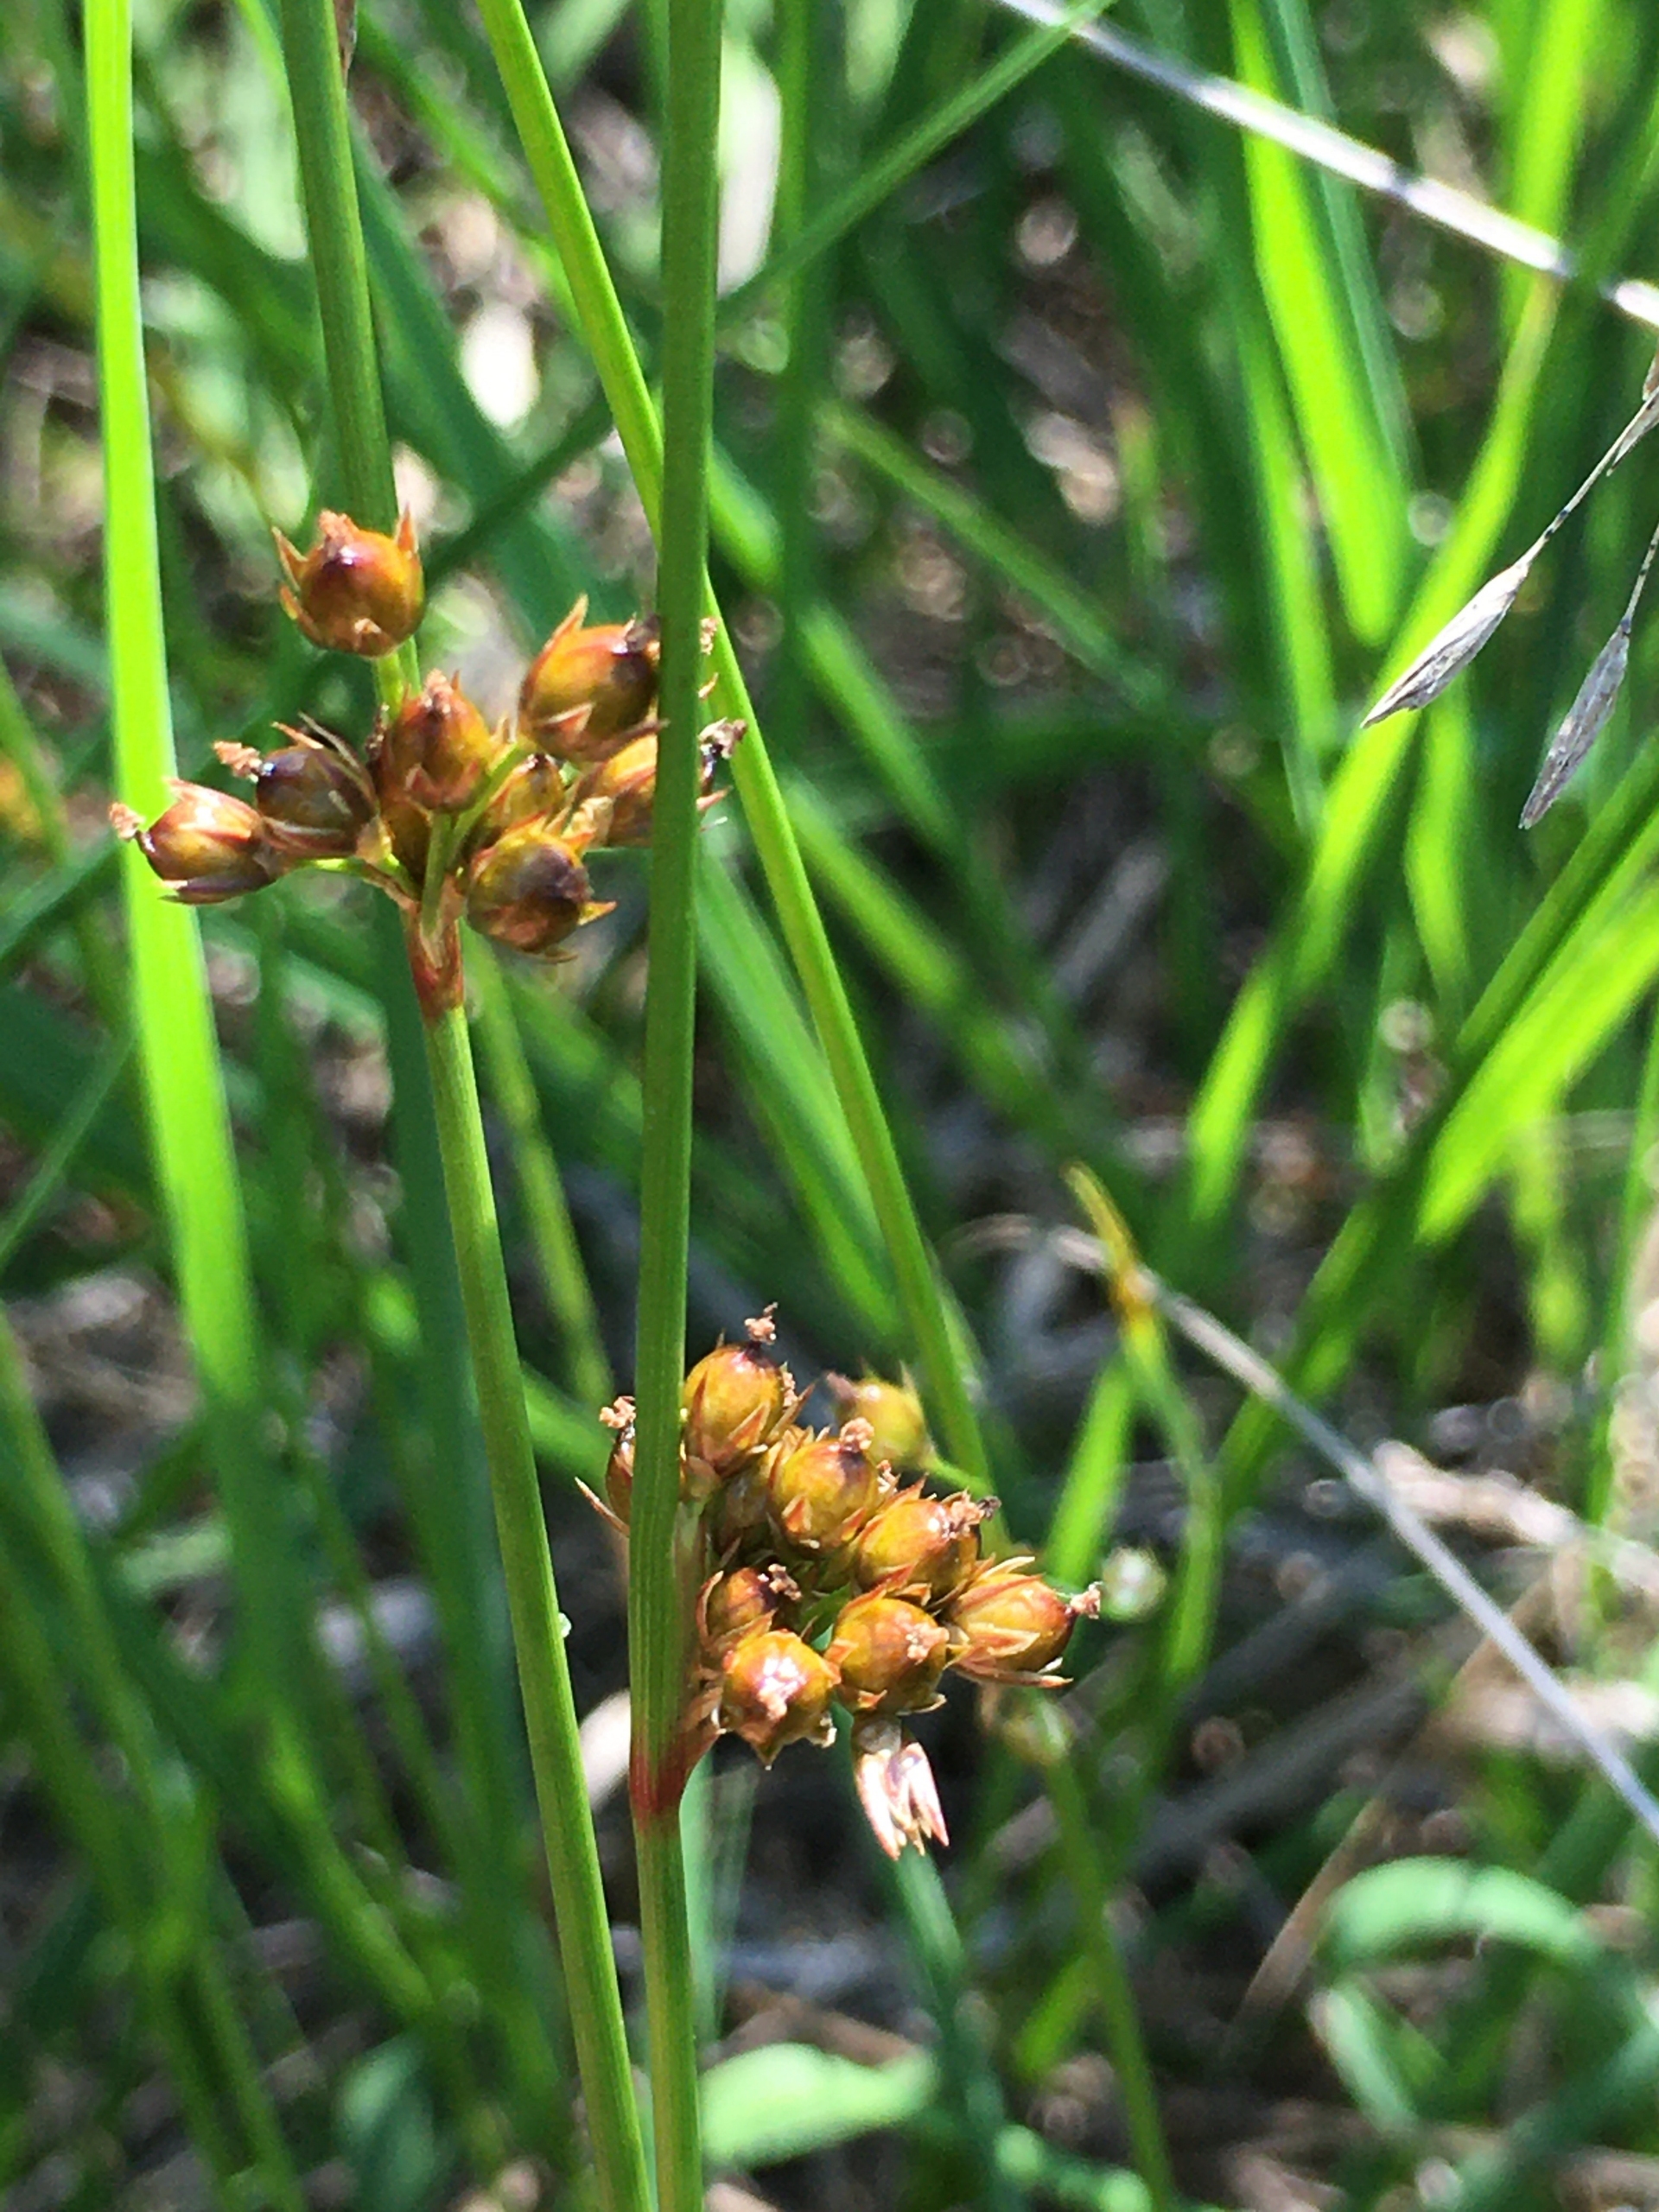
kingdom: Plantae
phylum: Tracheophyta
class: Liliopsida
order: Poales
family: Juncaceae
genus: Juncus
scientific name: Juncus filiformis
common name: Tråd-siv
